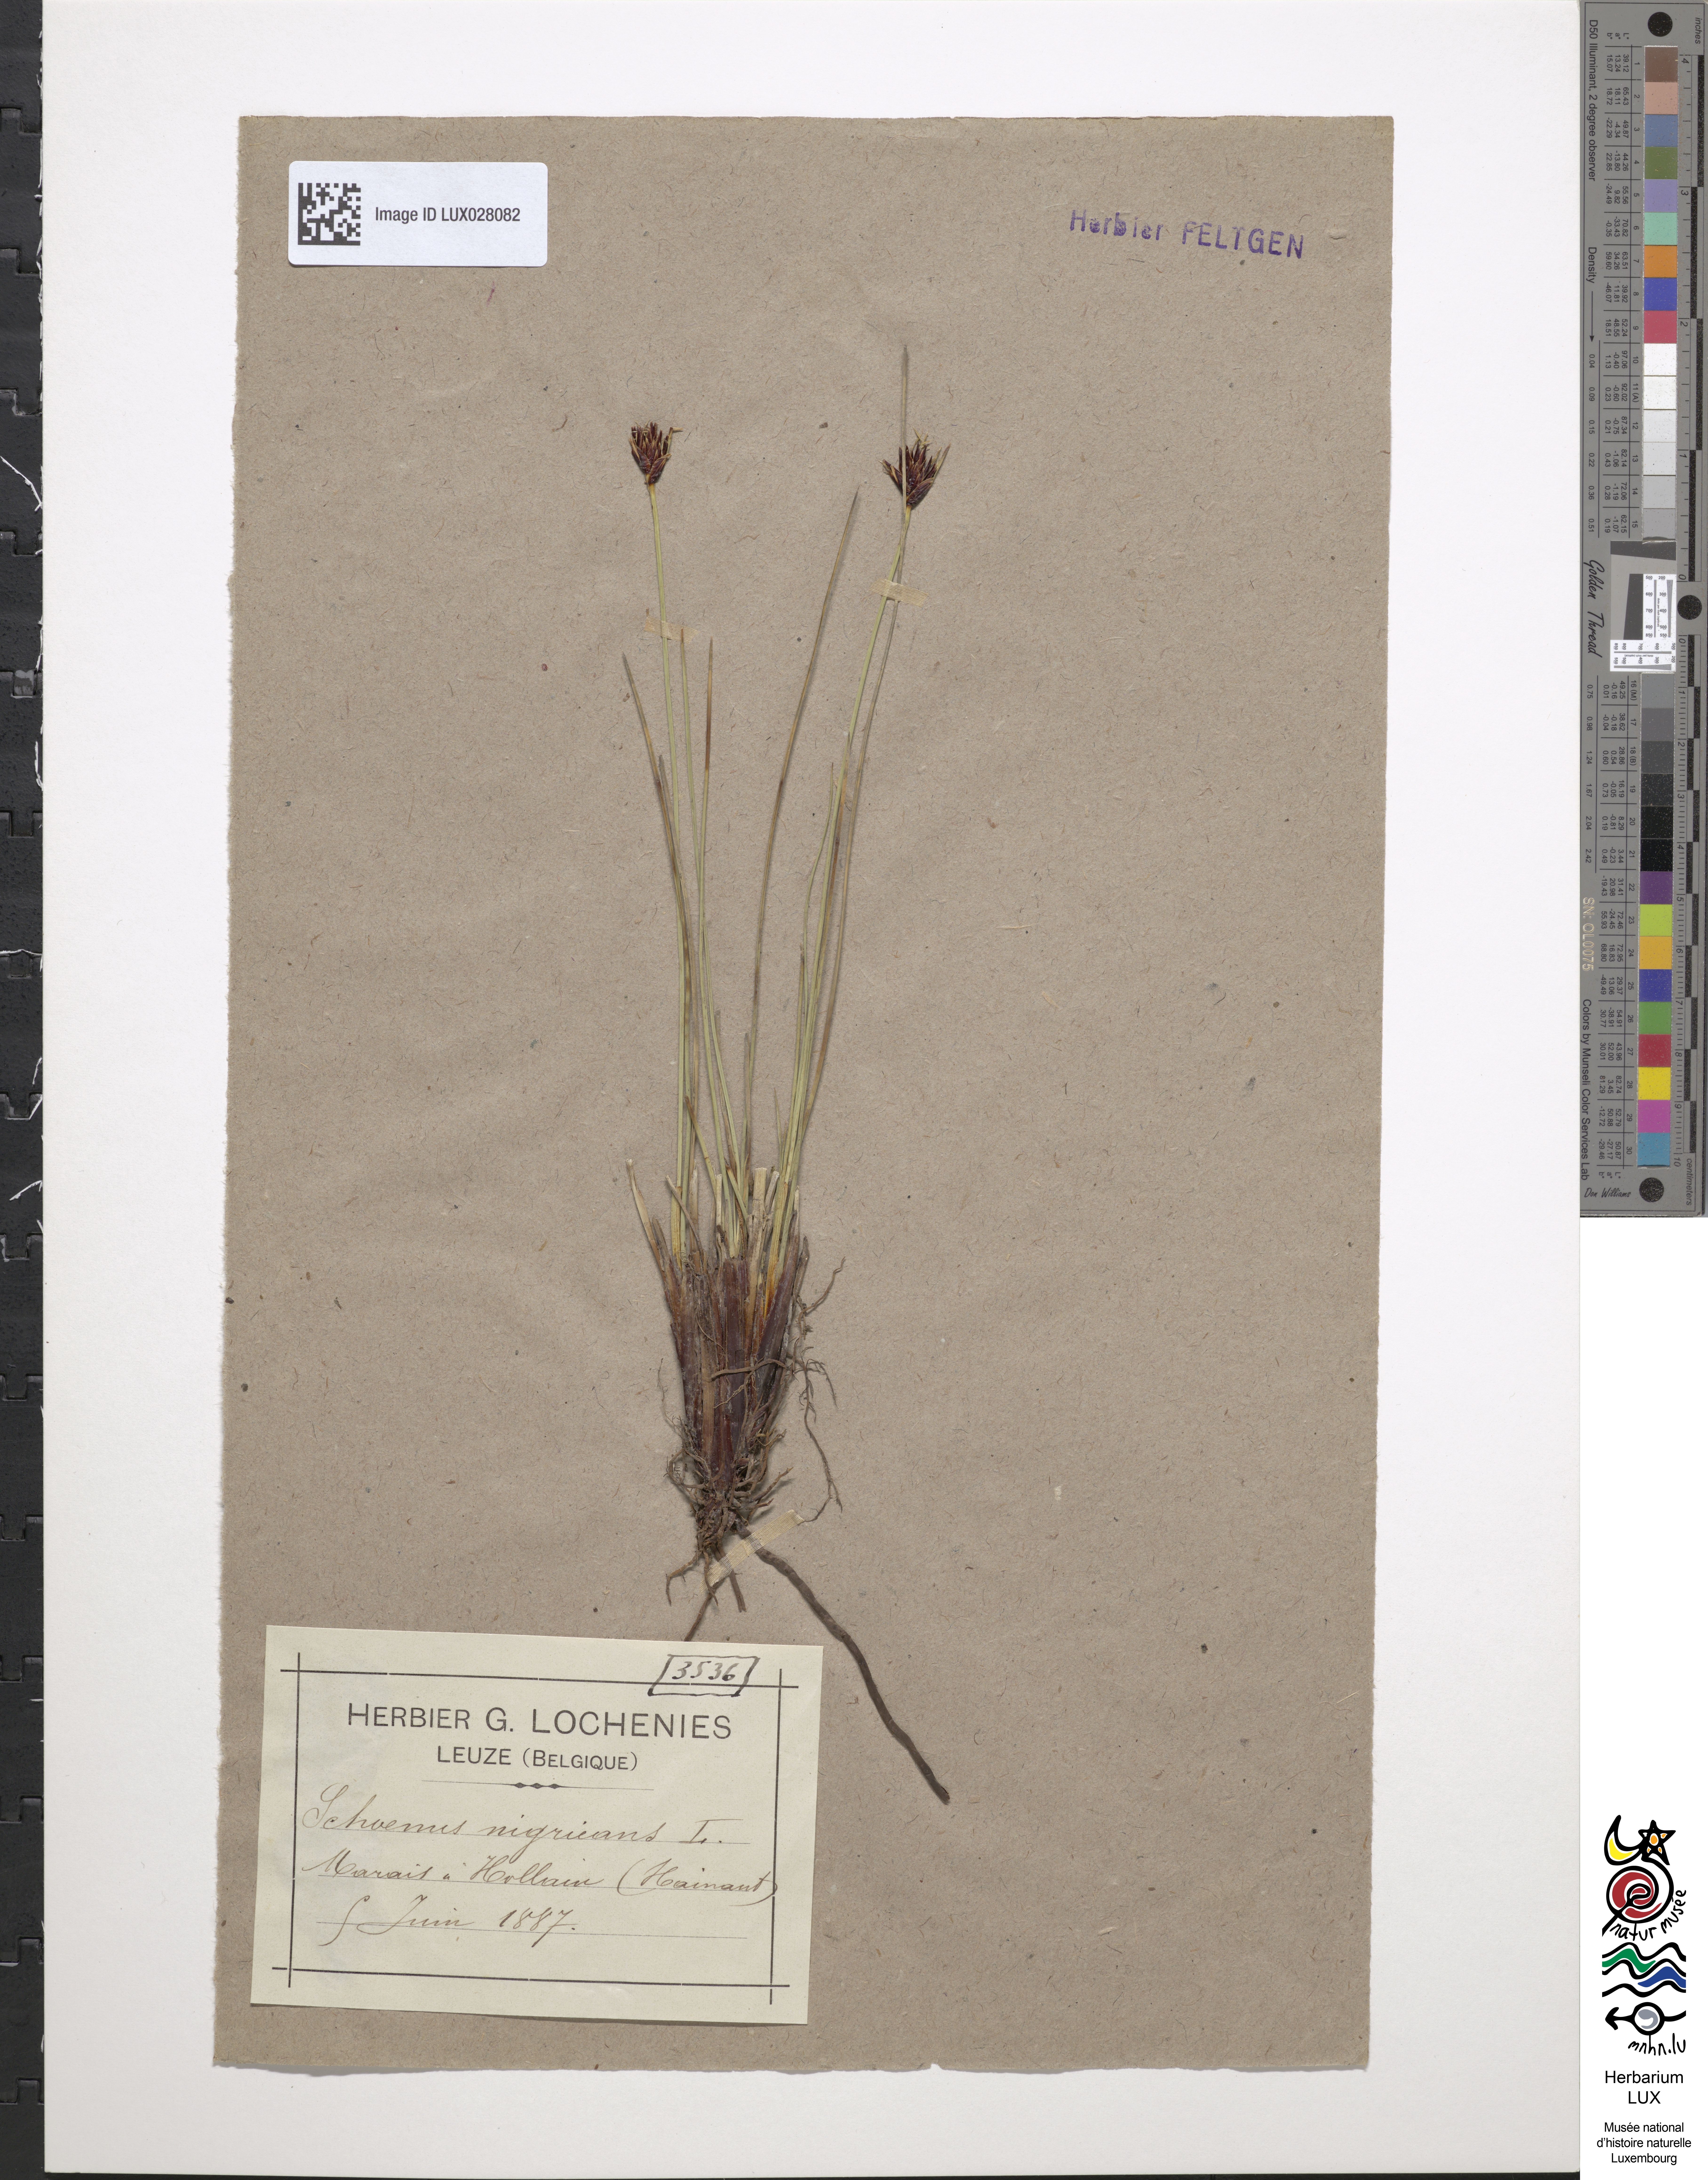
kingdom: Plantae
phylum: Tracheophyta
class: Liliopsida
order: Poales
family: Cyperaceae
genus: Schoenus
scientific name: Schoenus nigricans
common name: Black bog-rush
